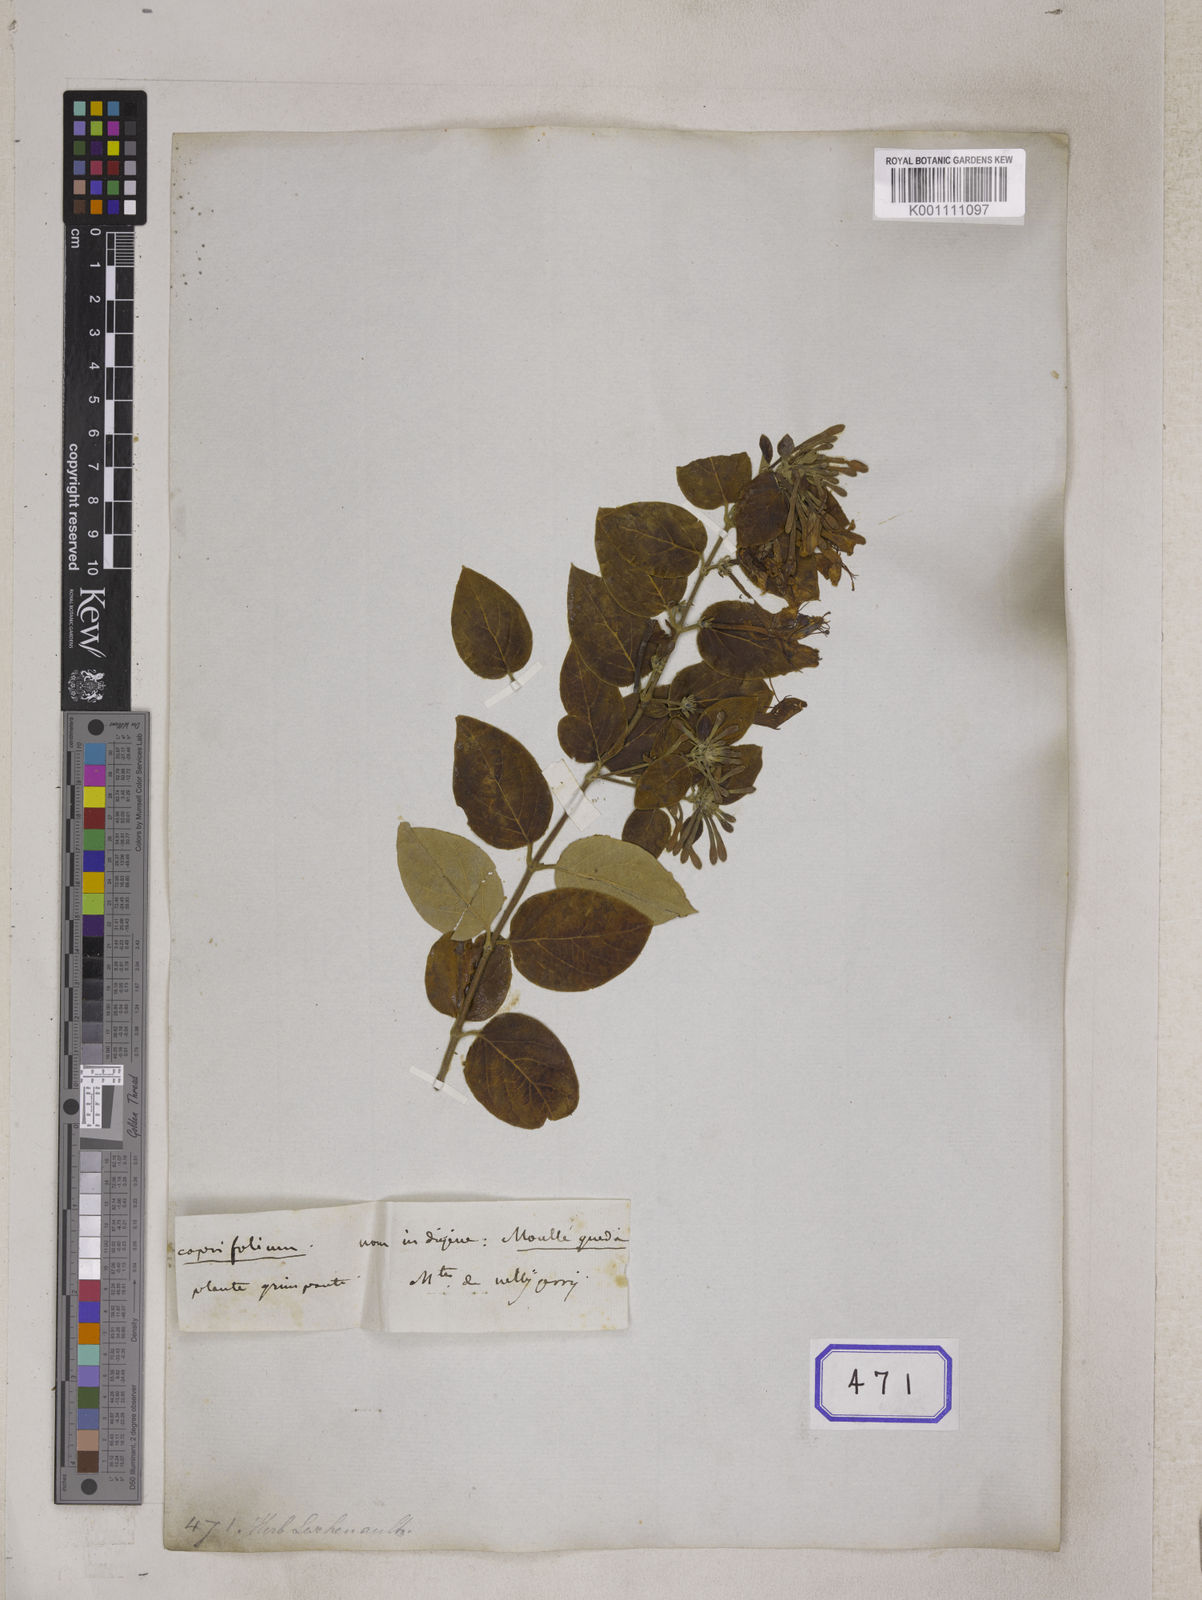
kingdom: Plantae
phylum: Tracheophyta
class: Magnoliopsida
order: Dipsacales
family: Caprifoliaceae
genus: Lonicera
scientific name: Lonicera leschenaultii
